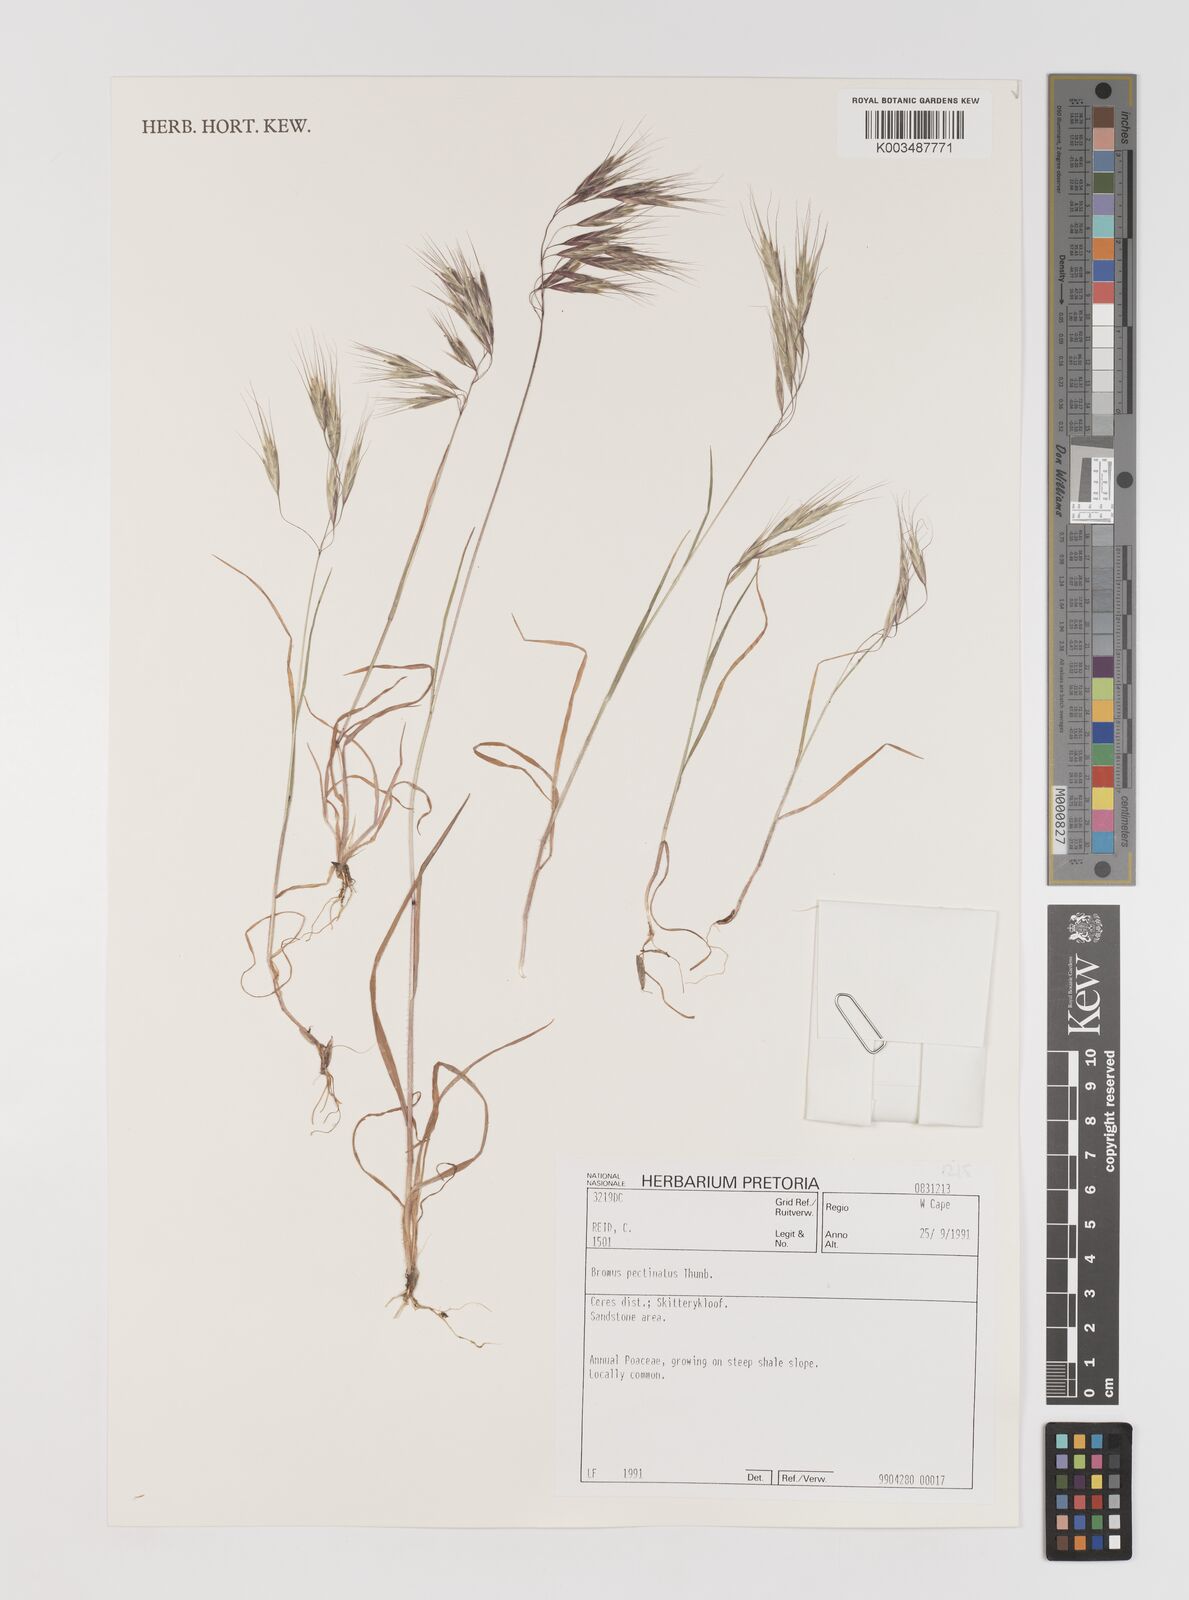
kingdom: Plantae
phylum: Tracheophyta
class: Liliopsida
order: Poales
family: Poaceae
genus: Bromus
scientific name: Bromus pectinatus
